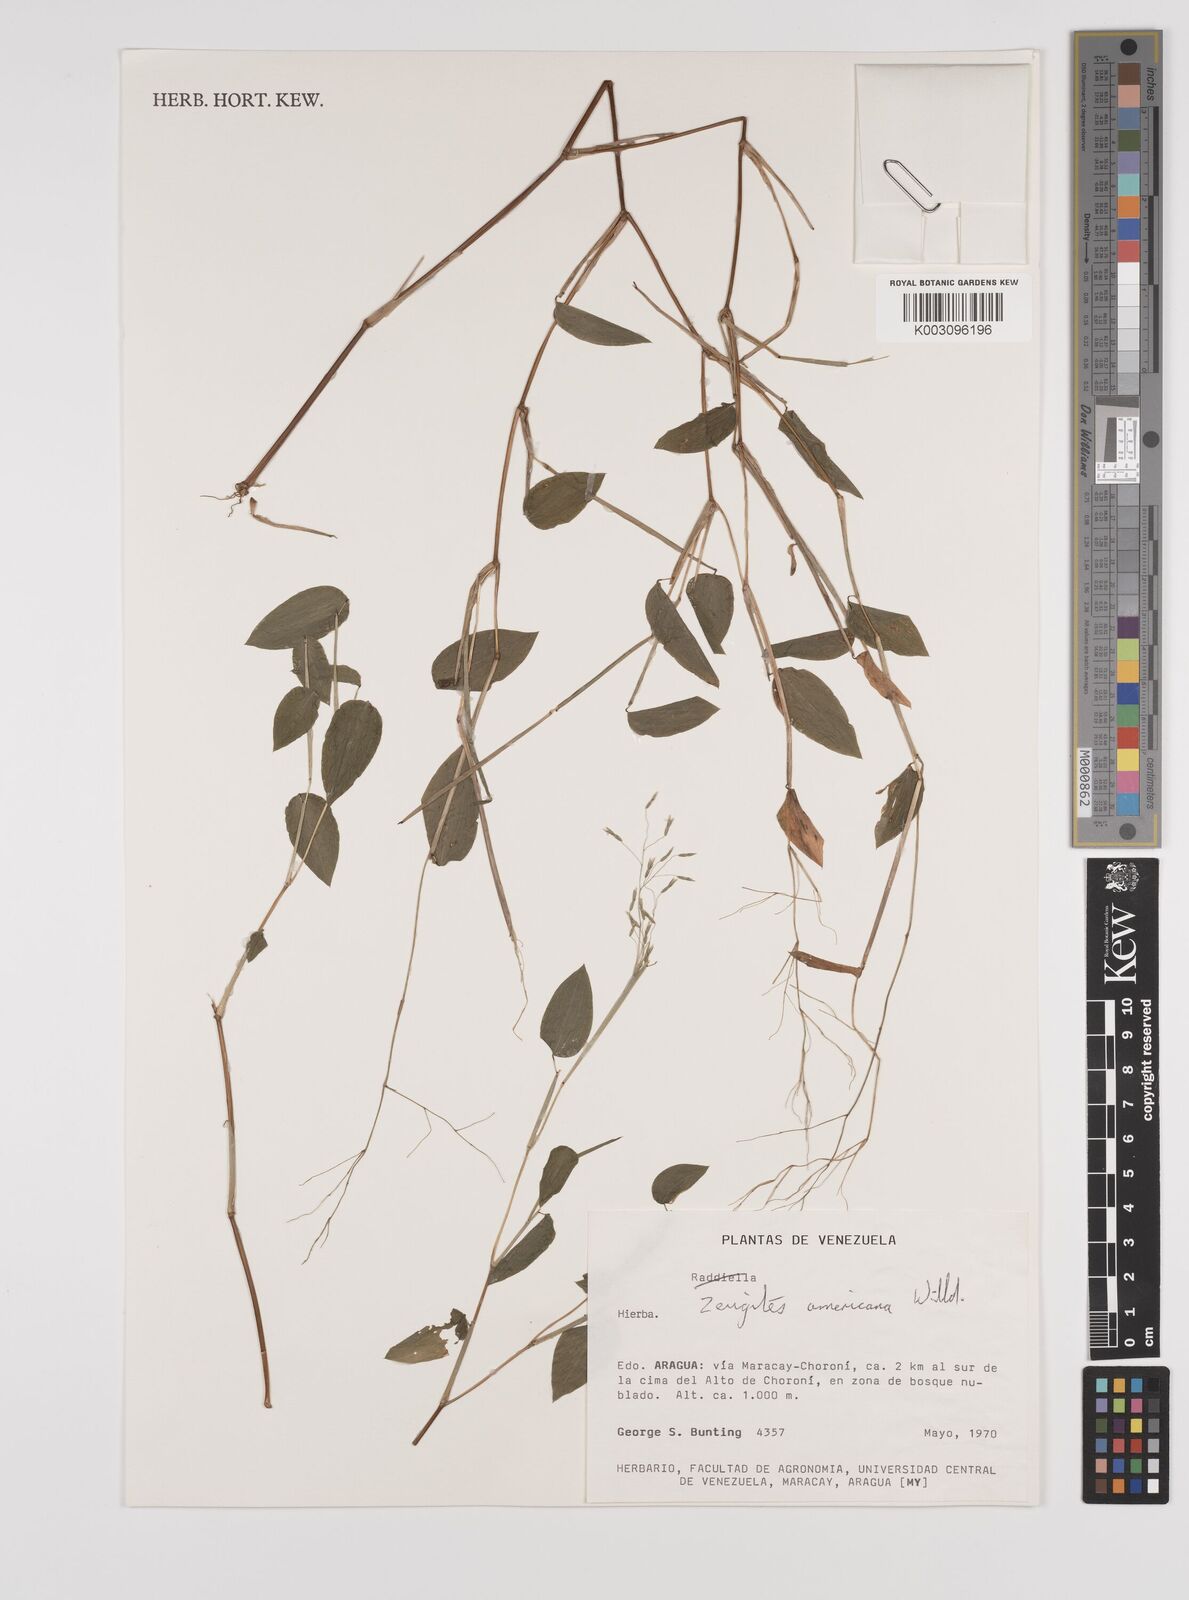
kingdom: Plantae
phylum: Tracheophyta
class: Liliopsida
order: Poales
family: Poaceae
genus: Zeugites
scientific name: Zeugites americanus
